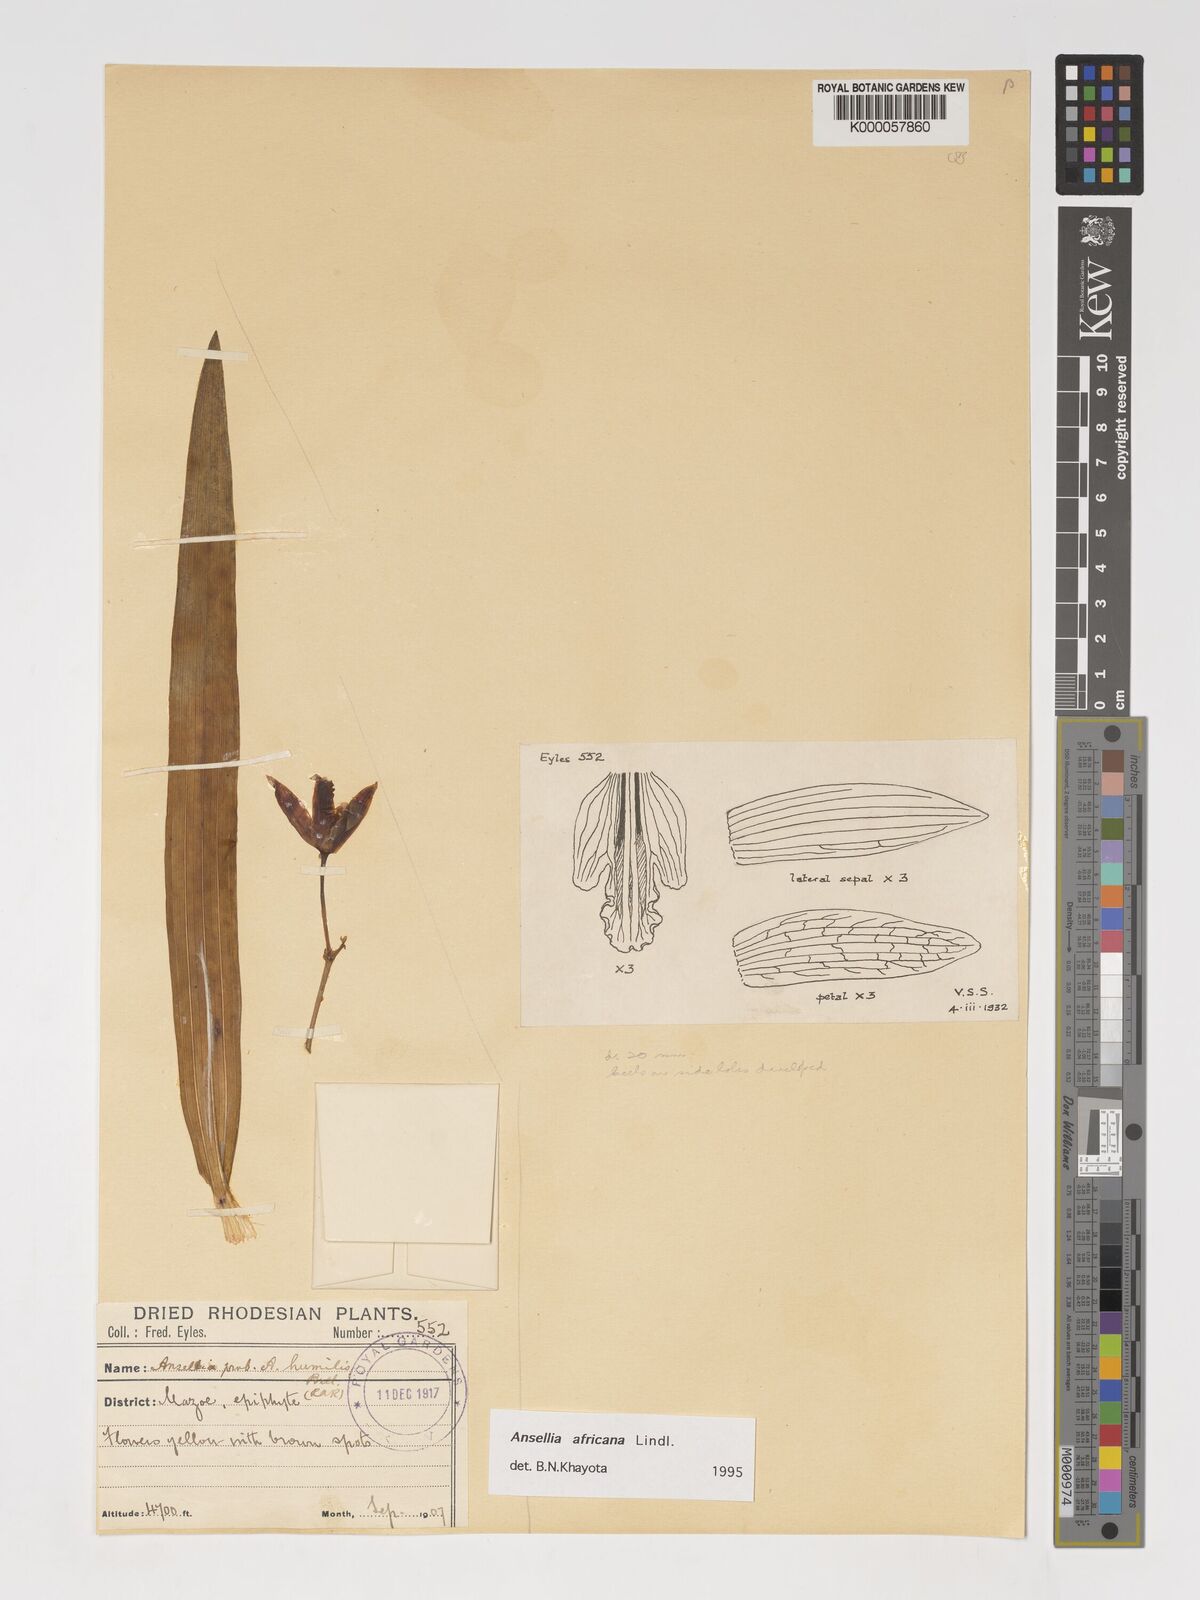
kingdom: Plantae
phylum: Tracheophyta
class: Liliopsida
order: Asparagales
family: Orchidaceae
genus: Ansellia
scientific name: Ansellia africana
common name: African ansellia
